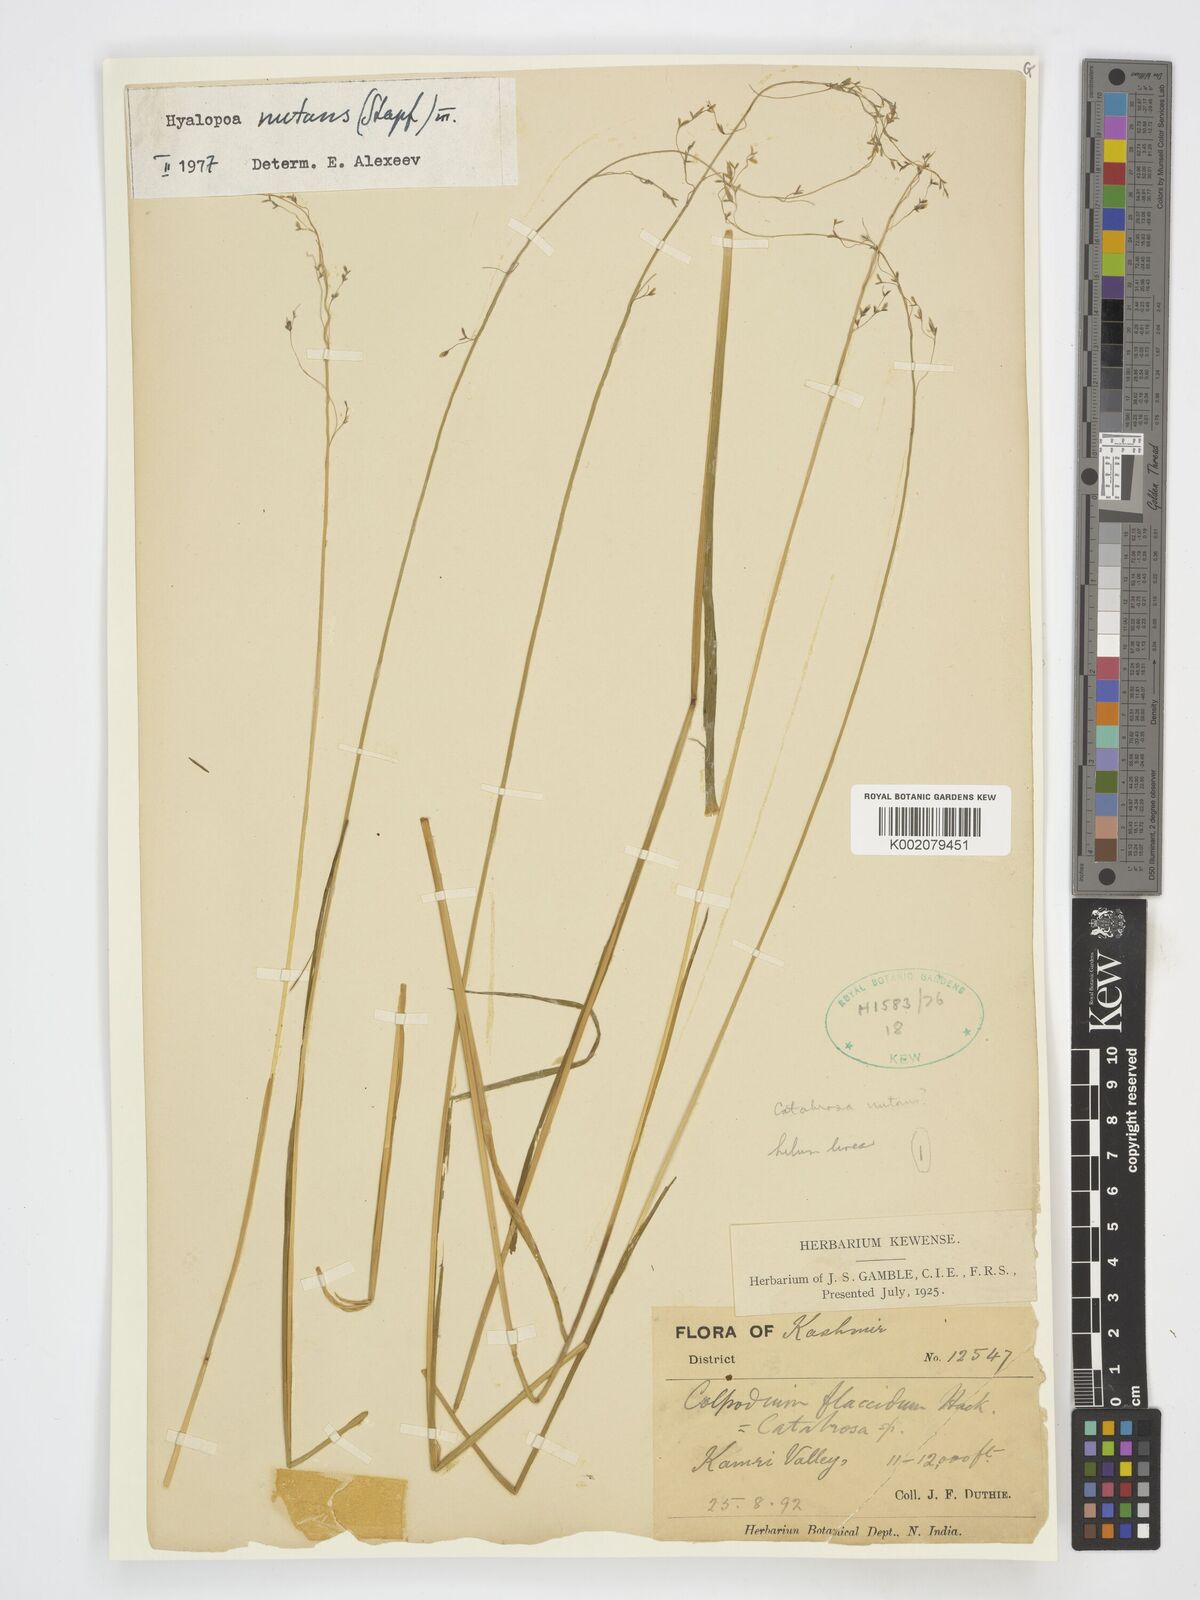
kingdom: Plantae
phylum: Tracheophyta
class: Liliopsida
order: Poales
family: Poaceae
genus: Hyalopoa
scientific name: Hyalopoa nutans
